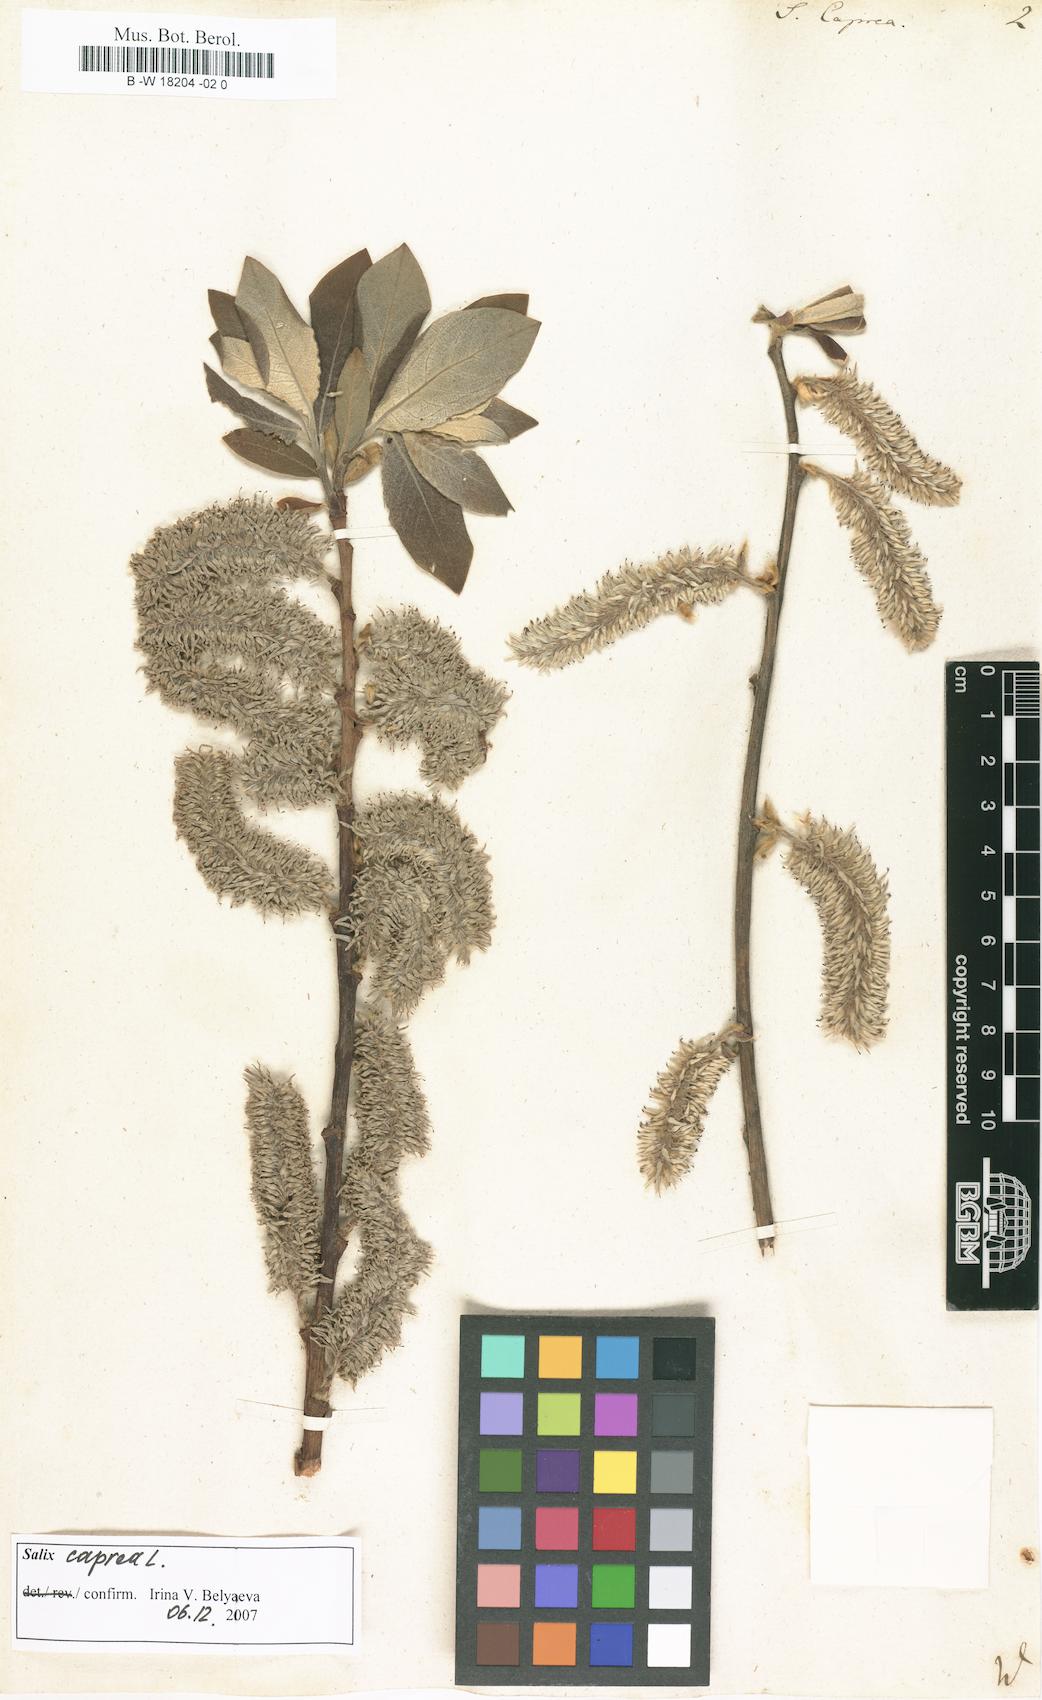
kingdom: Plantae
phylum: Tracheophyta
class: Magnoliopsida
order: Malpighiales
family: Salicaceae
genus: Salix
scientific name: Salix caprea
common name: Goat willow
